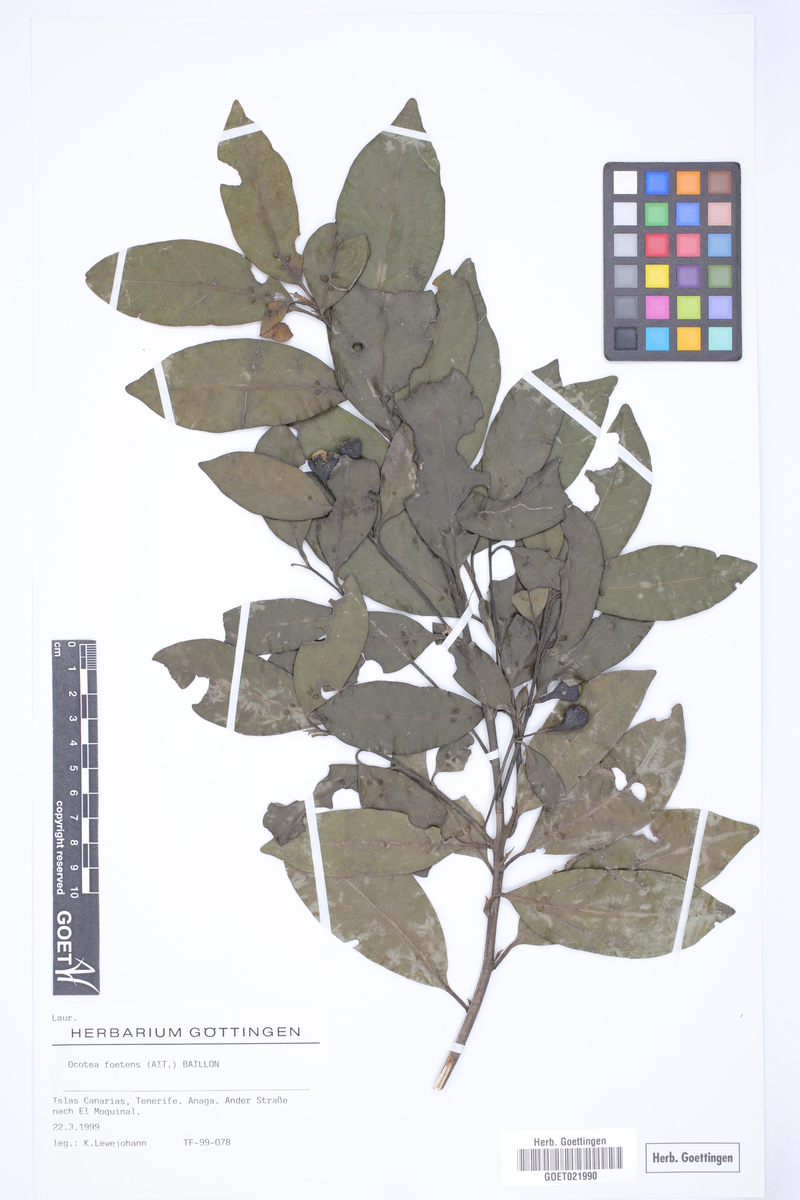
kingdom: Plantae
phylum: Tracheophyta
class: Magnoliopsida
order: Laurales
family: Lauraceae
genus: Mespilodaphne
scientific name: Mespilodaphne foetens
